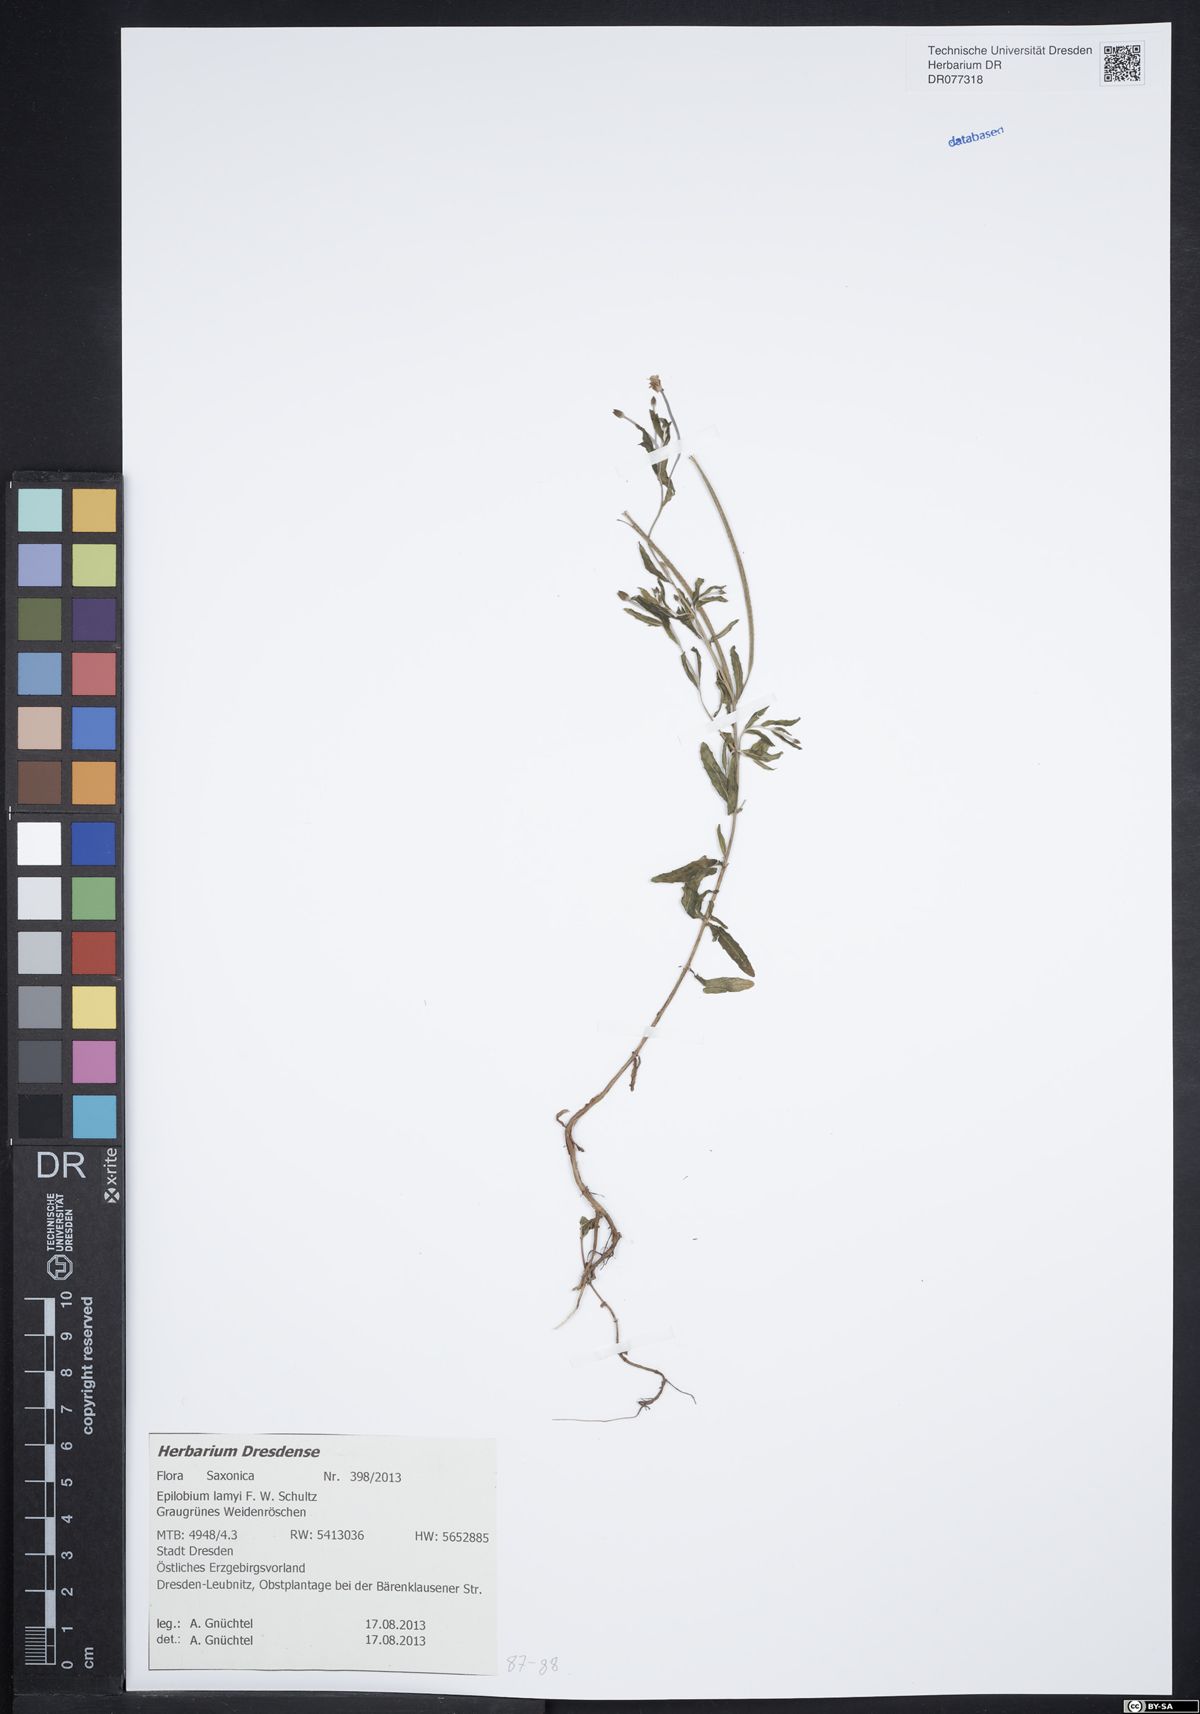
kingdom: Plantae
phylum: Tracheophyta
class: Magnoliopsida
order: Myrtales
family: Onagraceae
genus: Epilobium
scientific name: Epilobium lamyi
